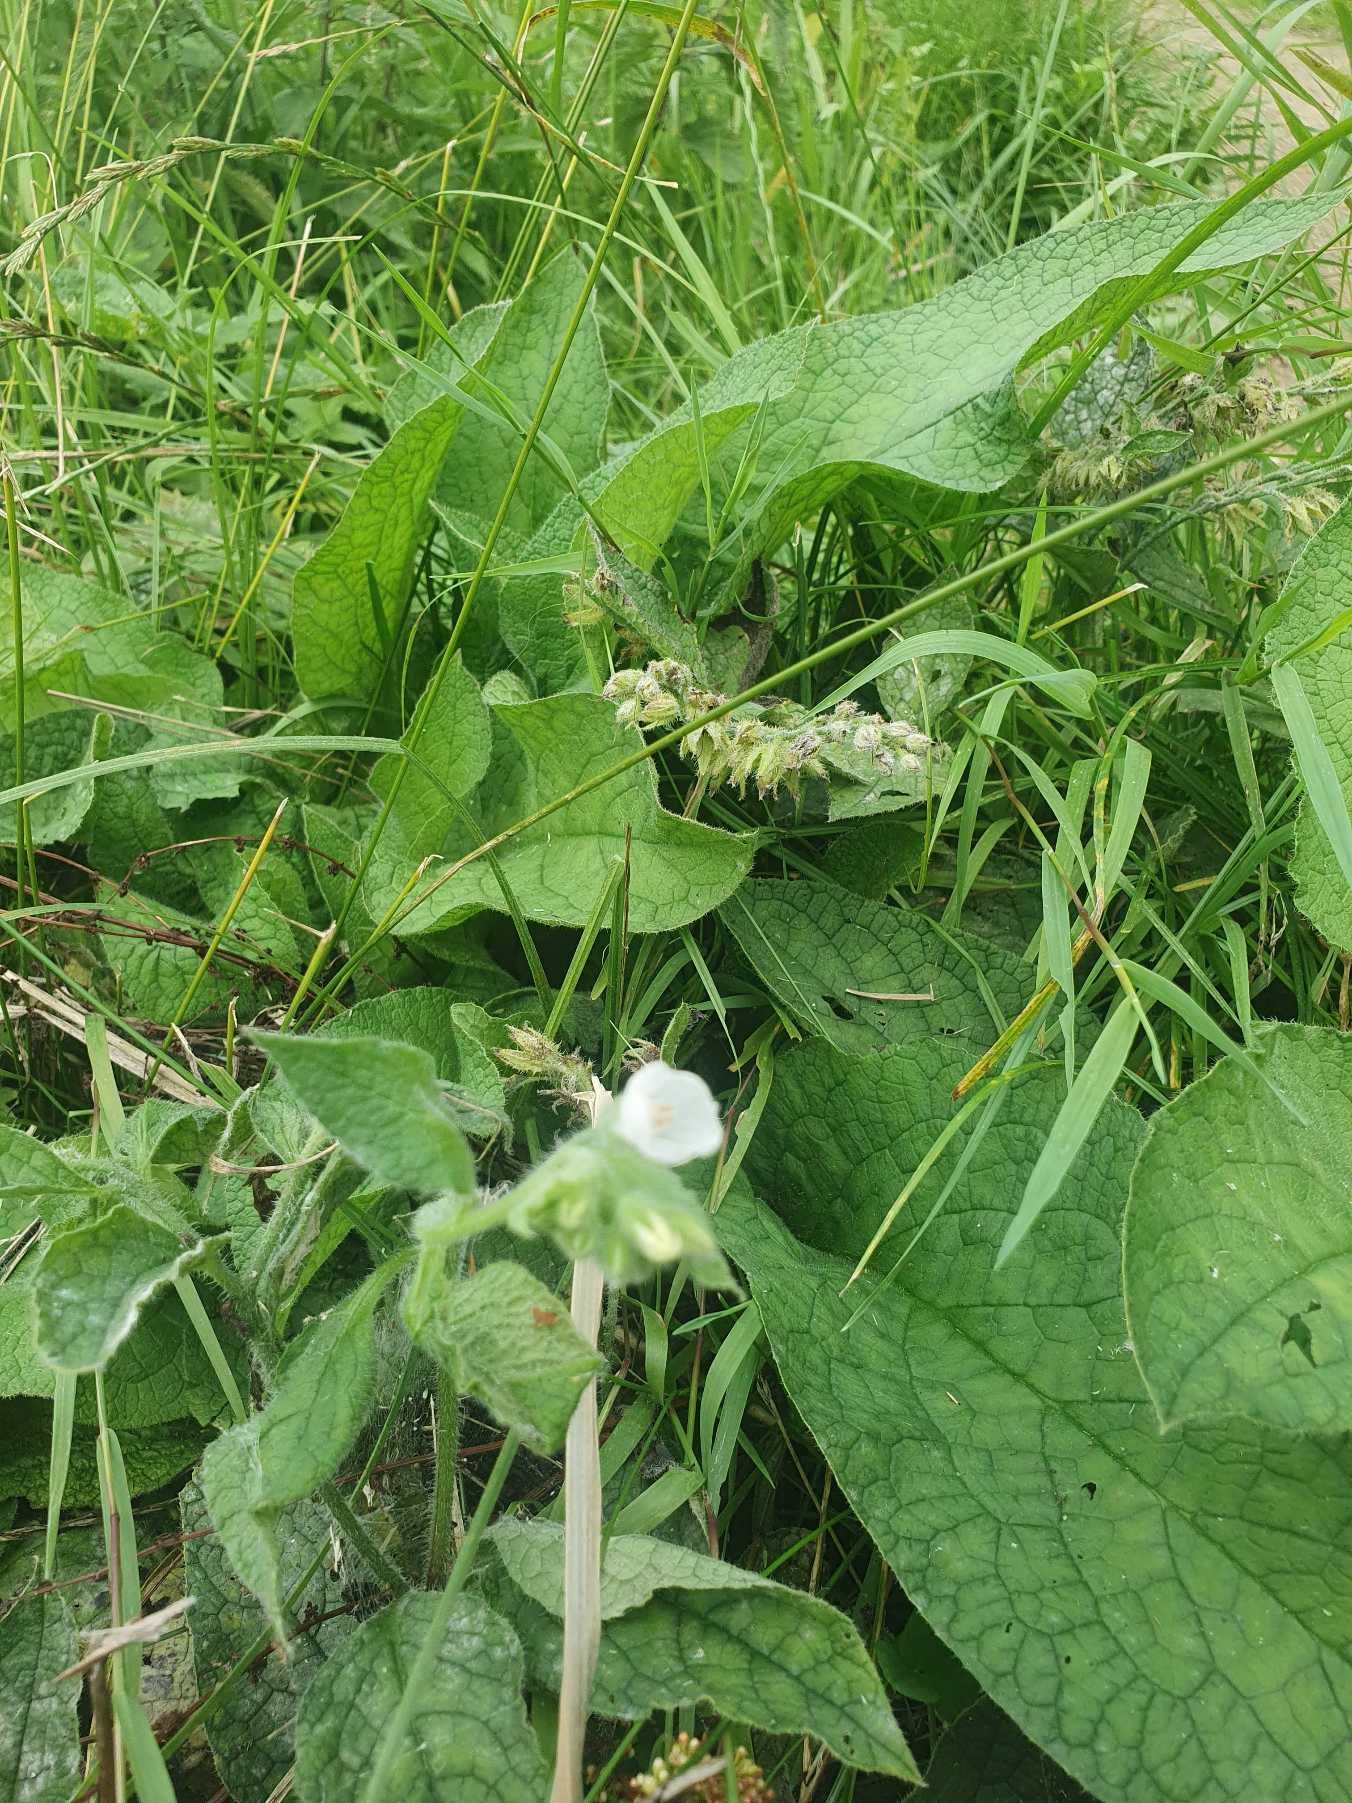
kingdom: Plantae
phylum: Tracheophyta
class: Magnoliopsida
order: Boraginales
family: Boraginaceae
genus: Symphytum
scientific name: Symphytum
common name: Kulsukkerslægten
